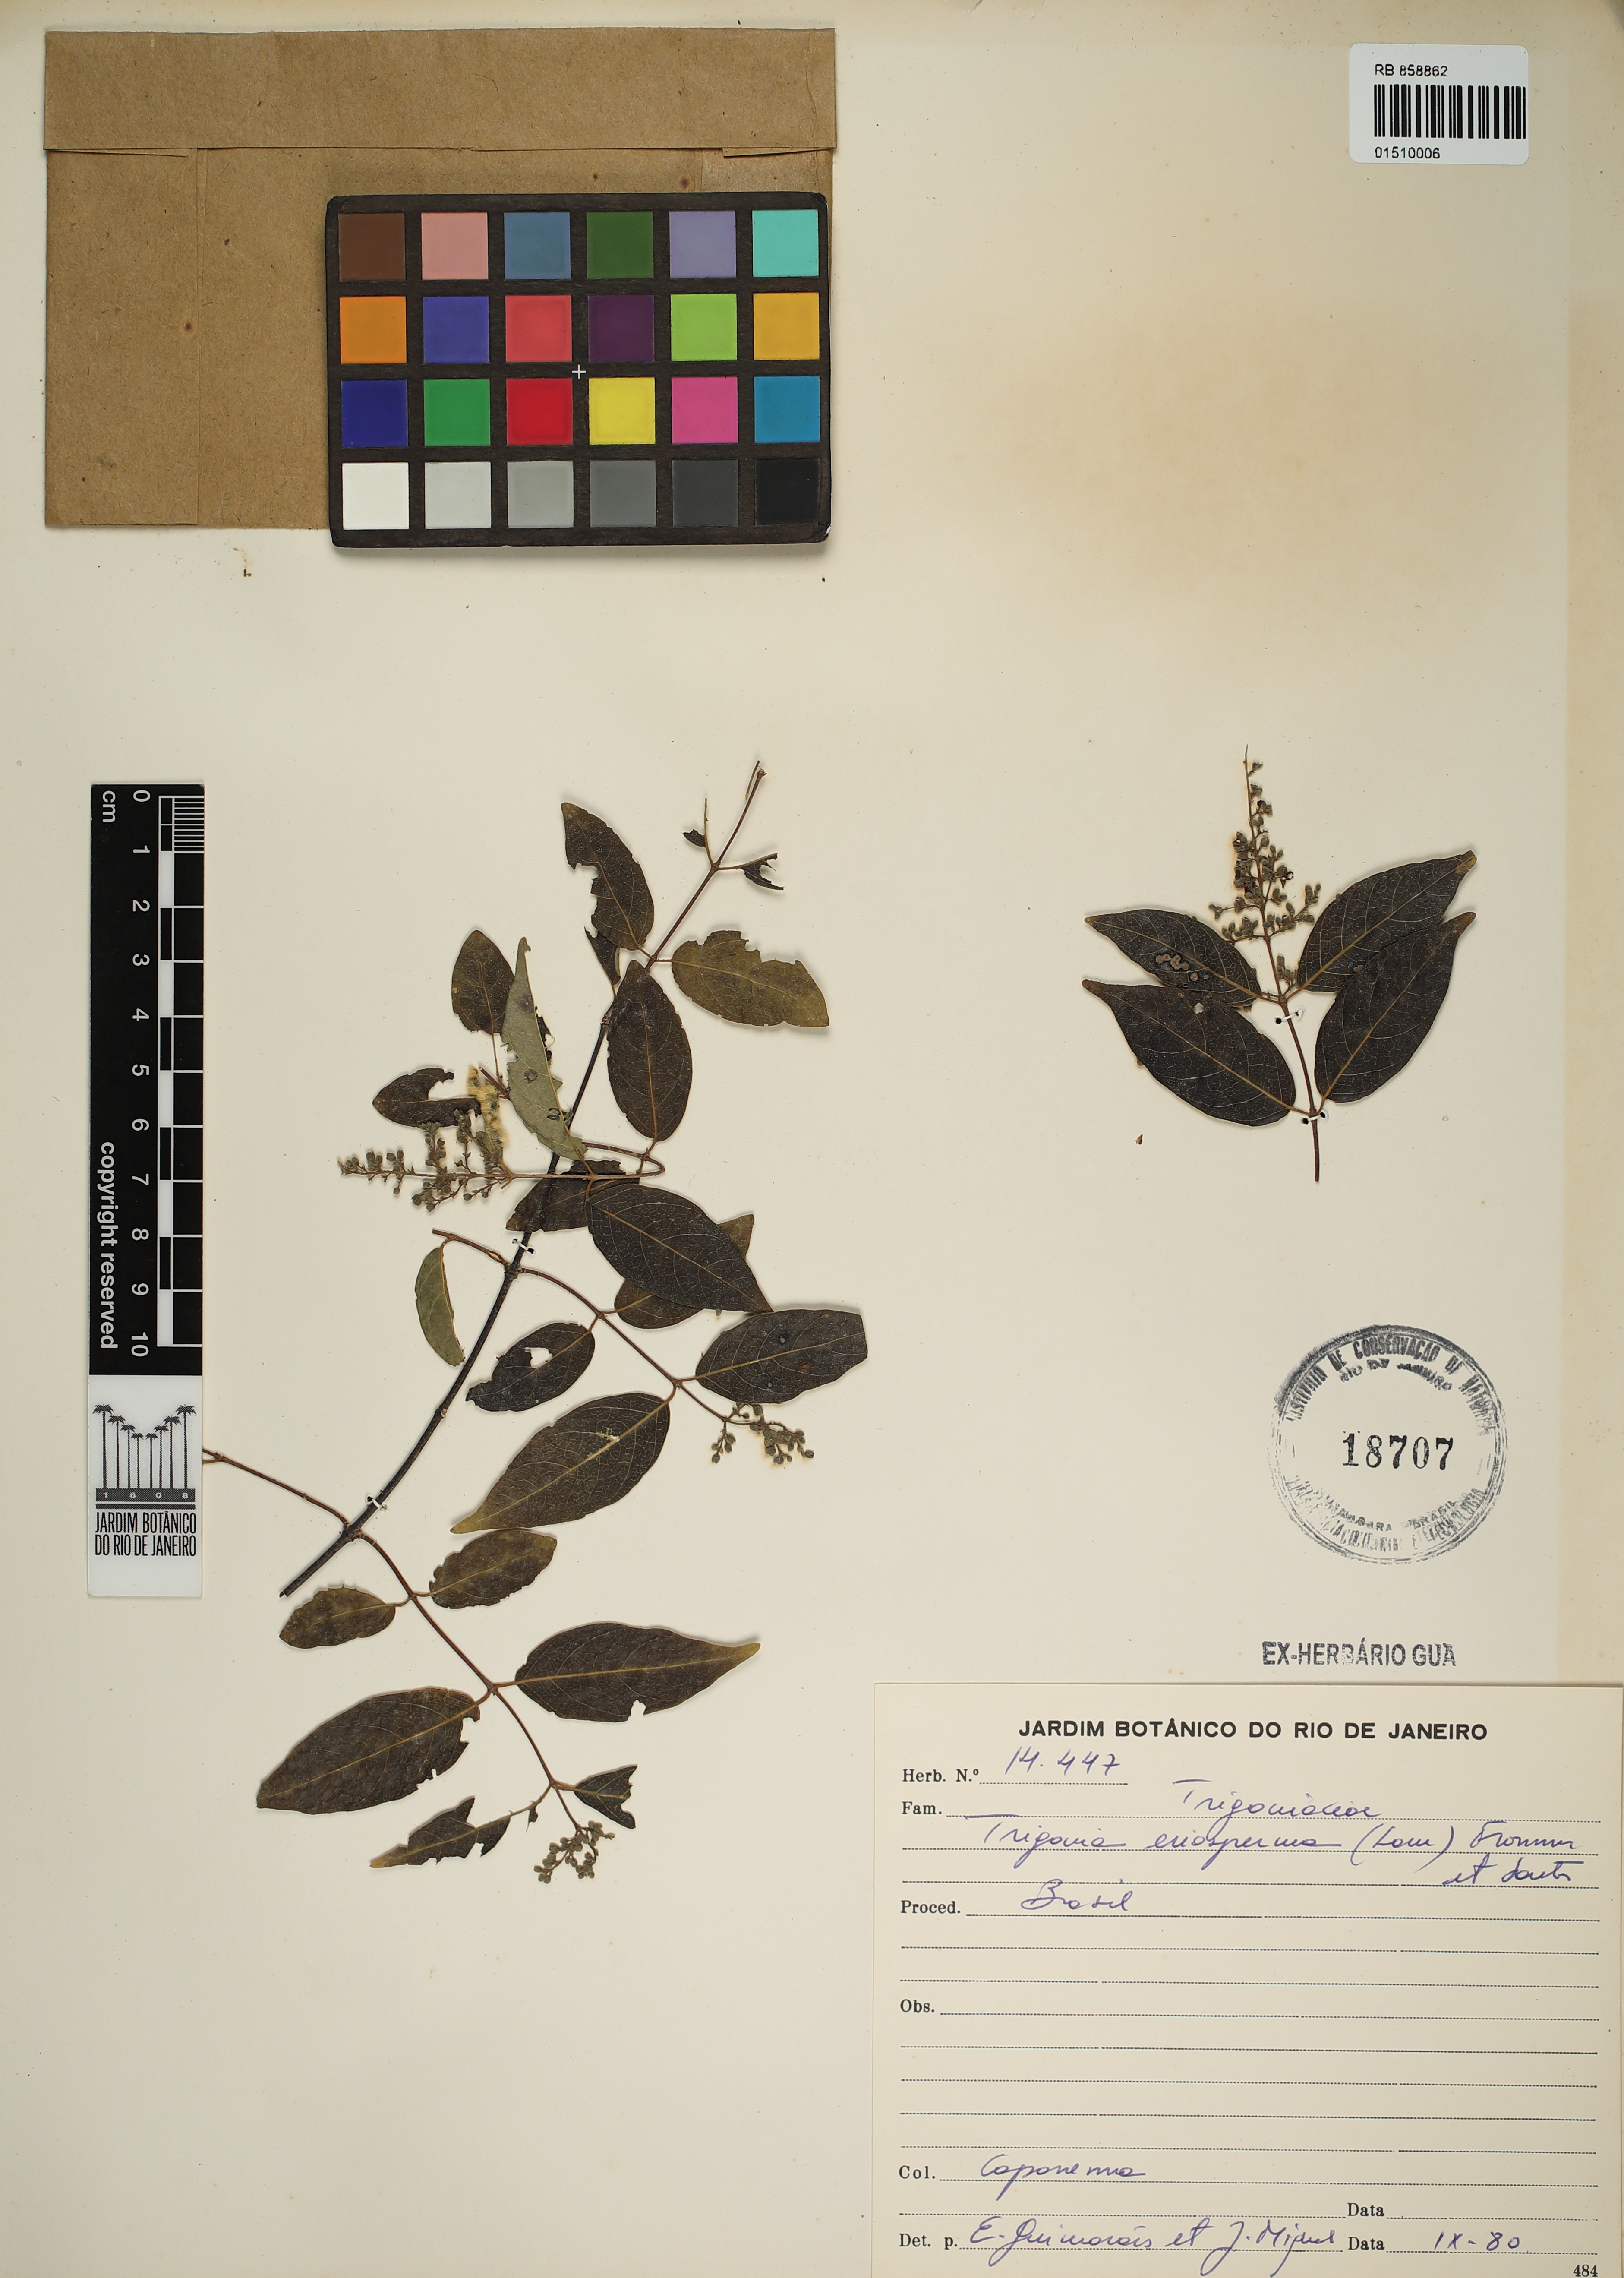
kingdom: Plantae
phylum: Tracheophyta
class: Magnoliopsida
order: Malpighiales
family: Trigoniaceae
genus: Trigonia
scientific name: Trigonia eriosperma
